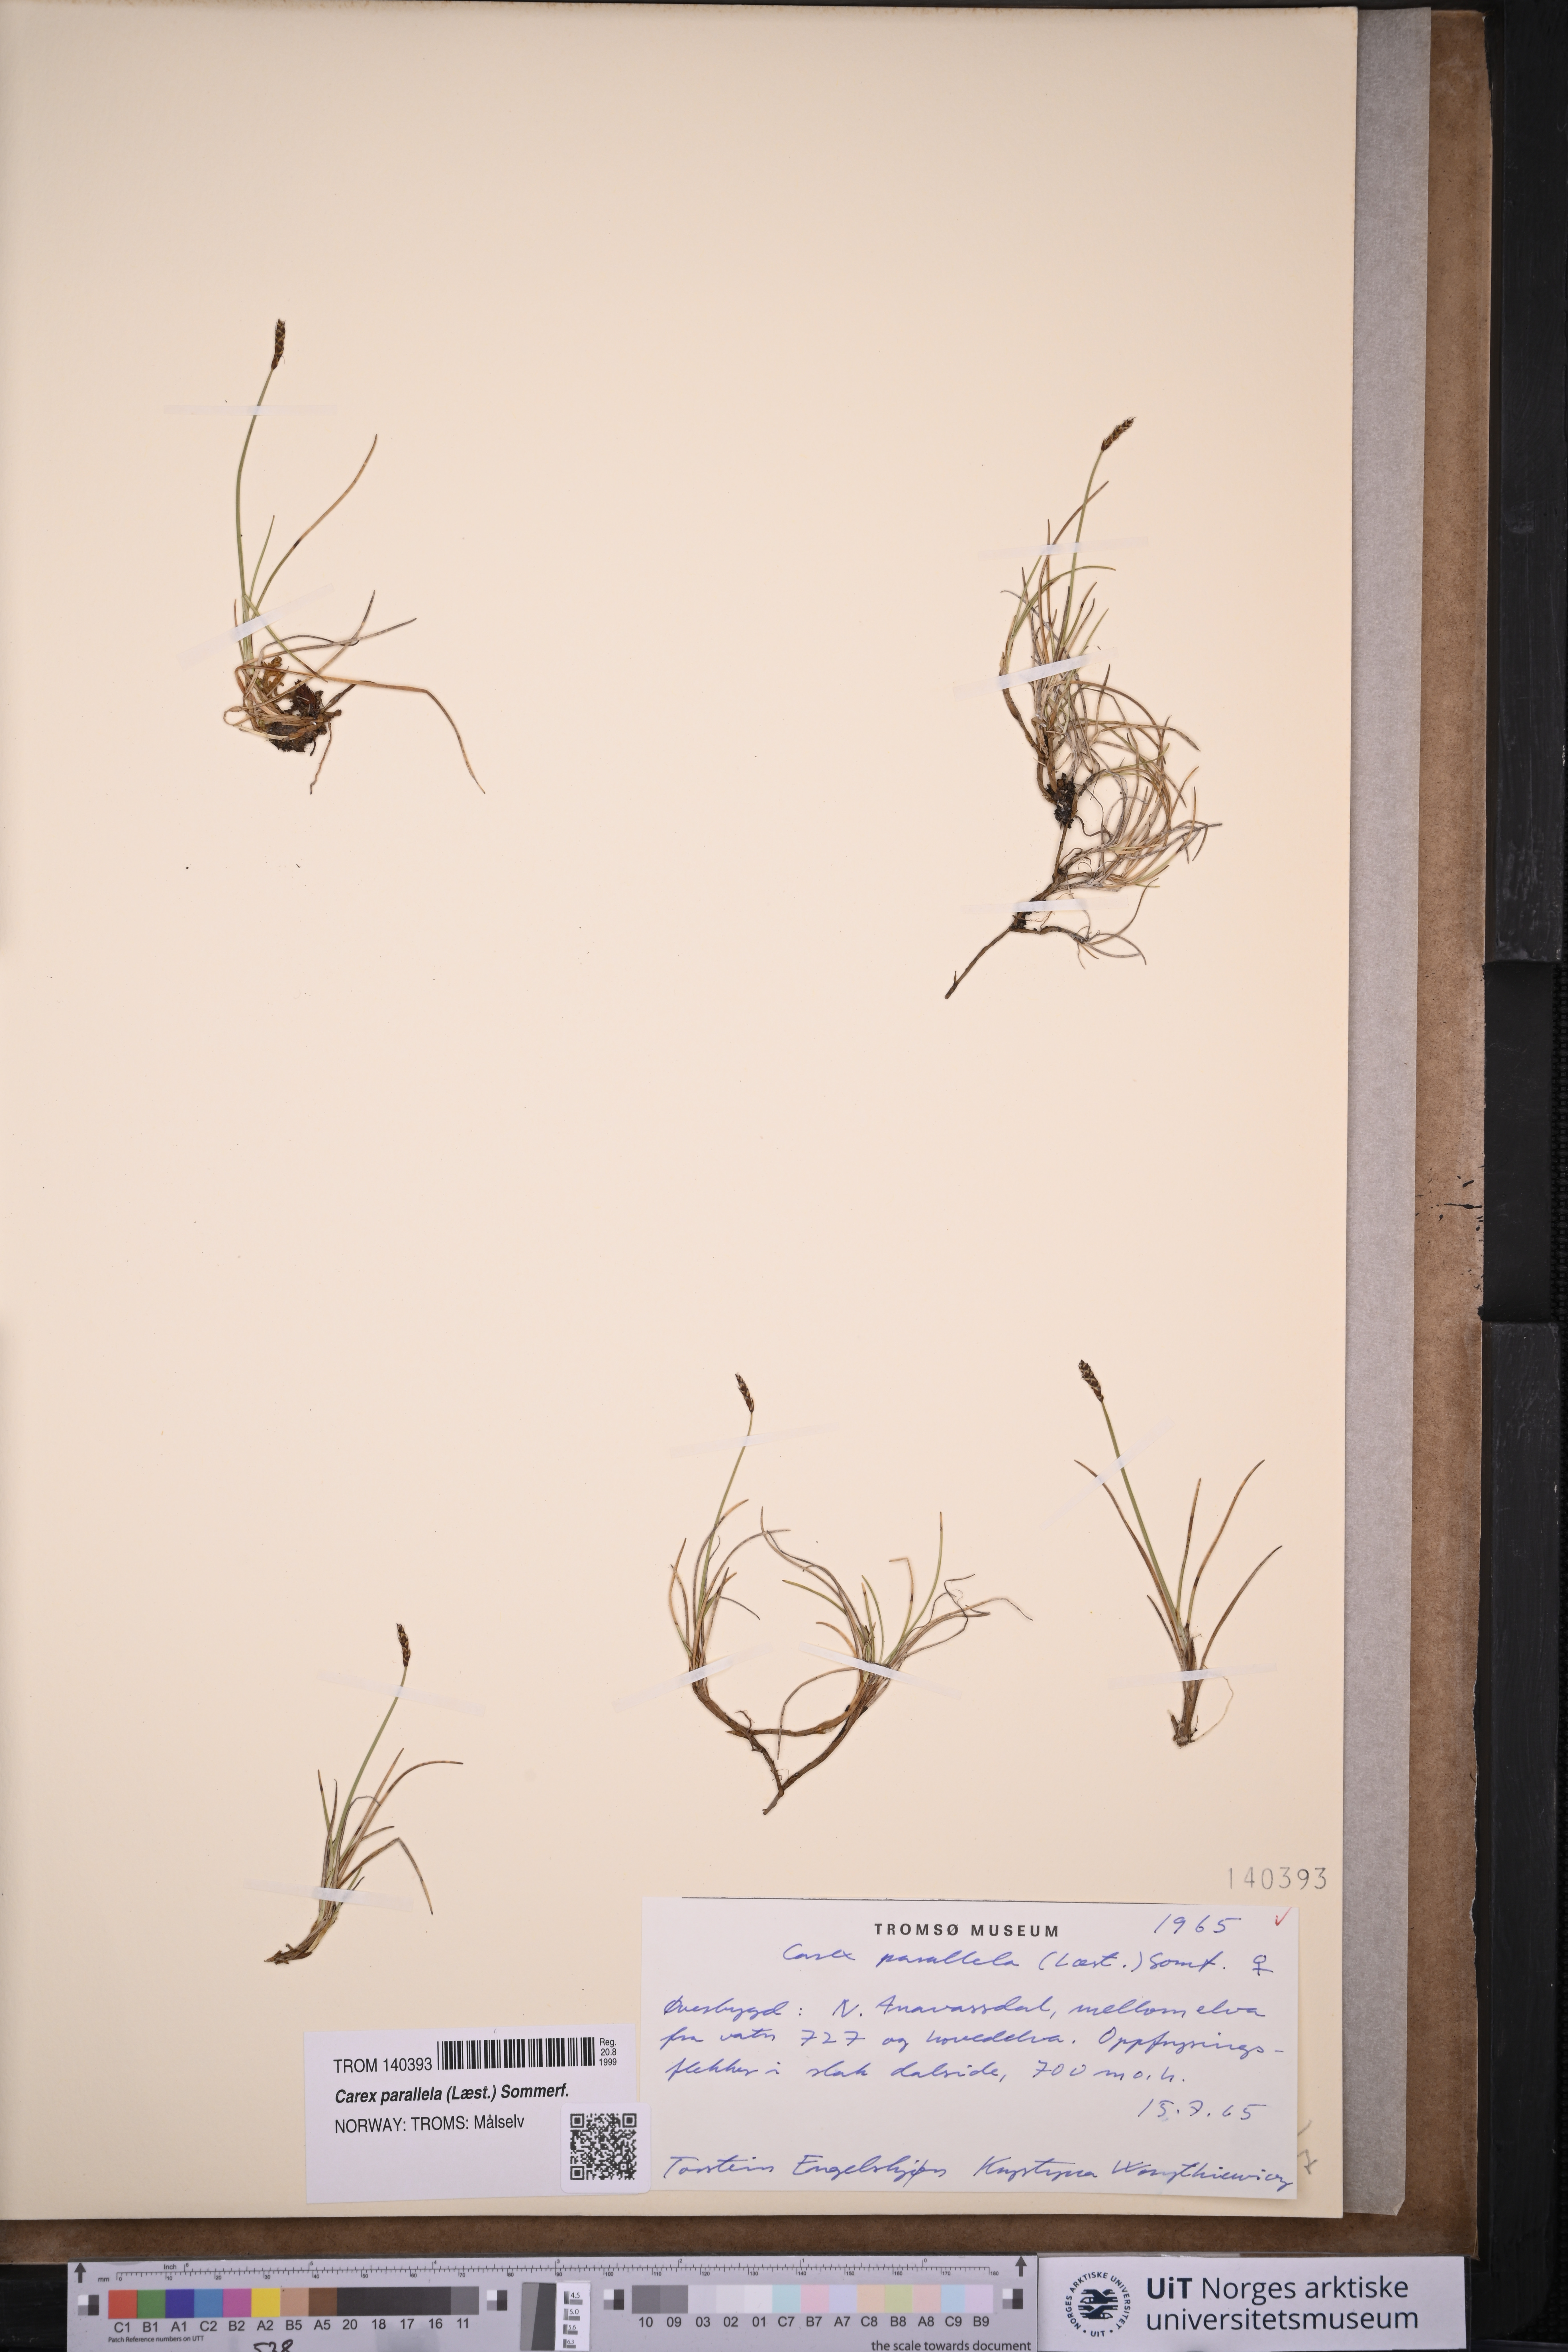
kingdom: Plantae
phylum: Tracheophyta
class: Liliopsida
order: Poales
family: Cyperaceae
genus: Carex
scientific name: Carex parallela
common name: Parallel sedge
